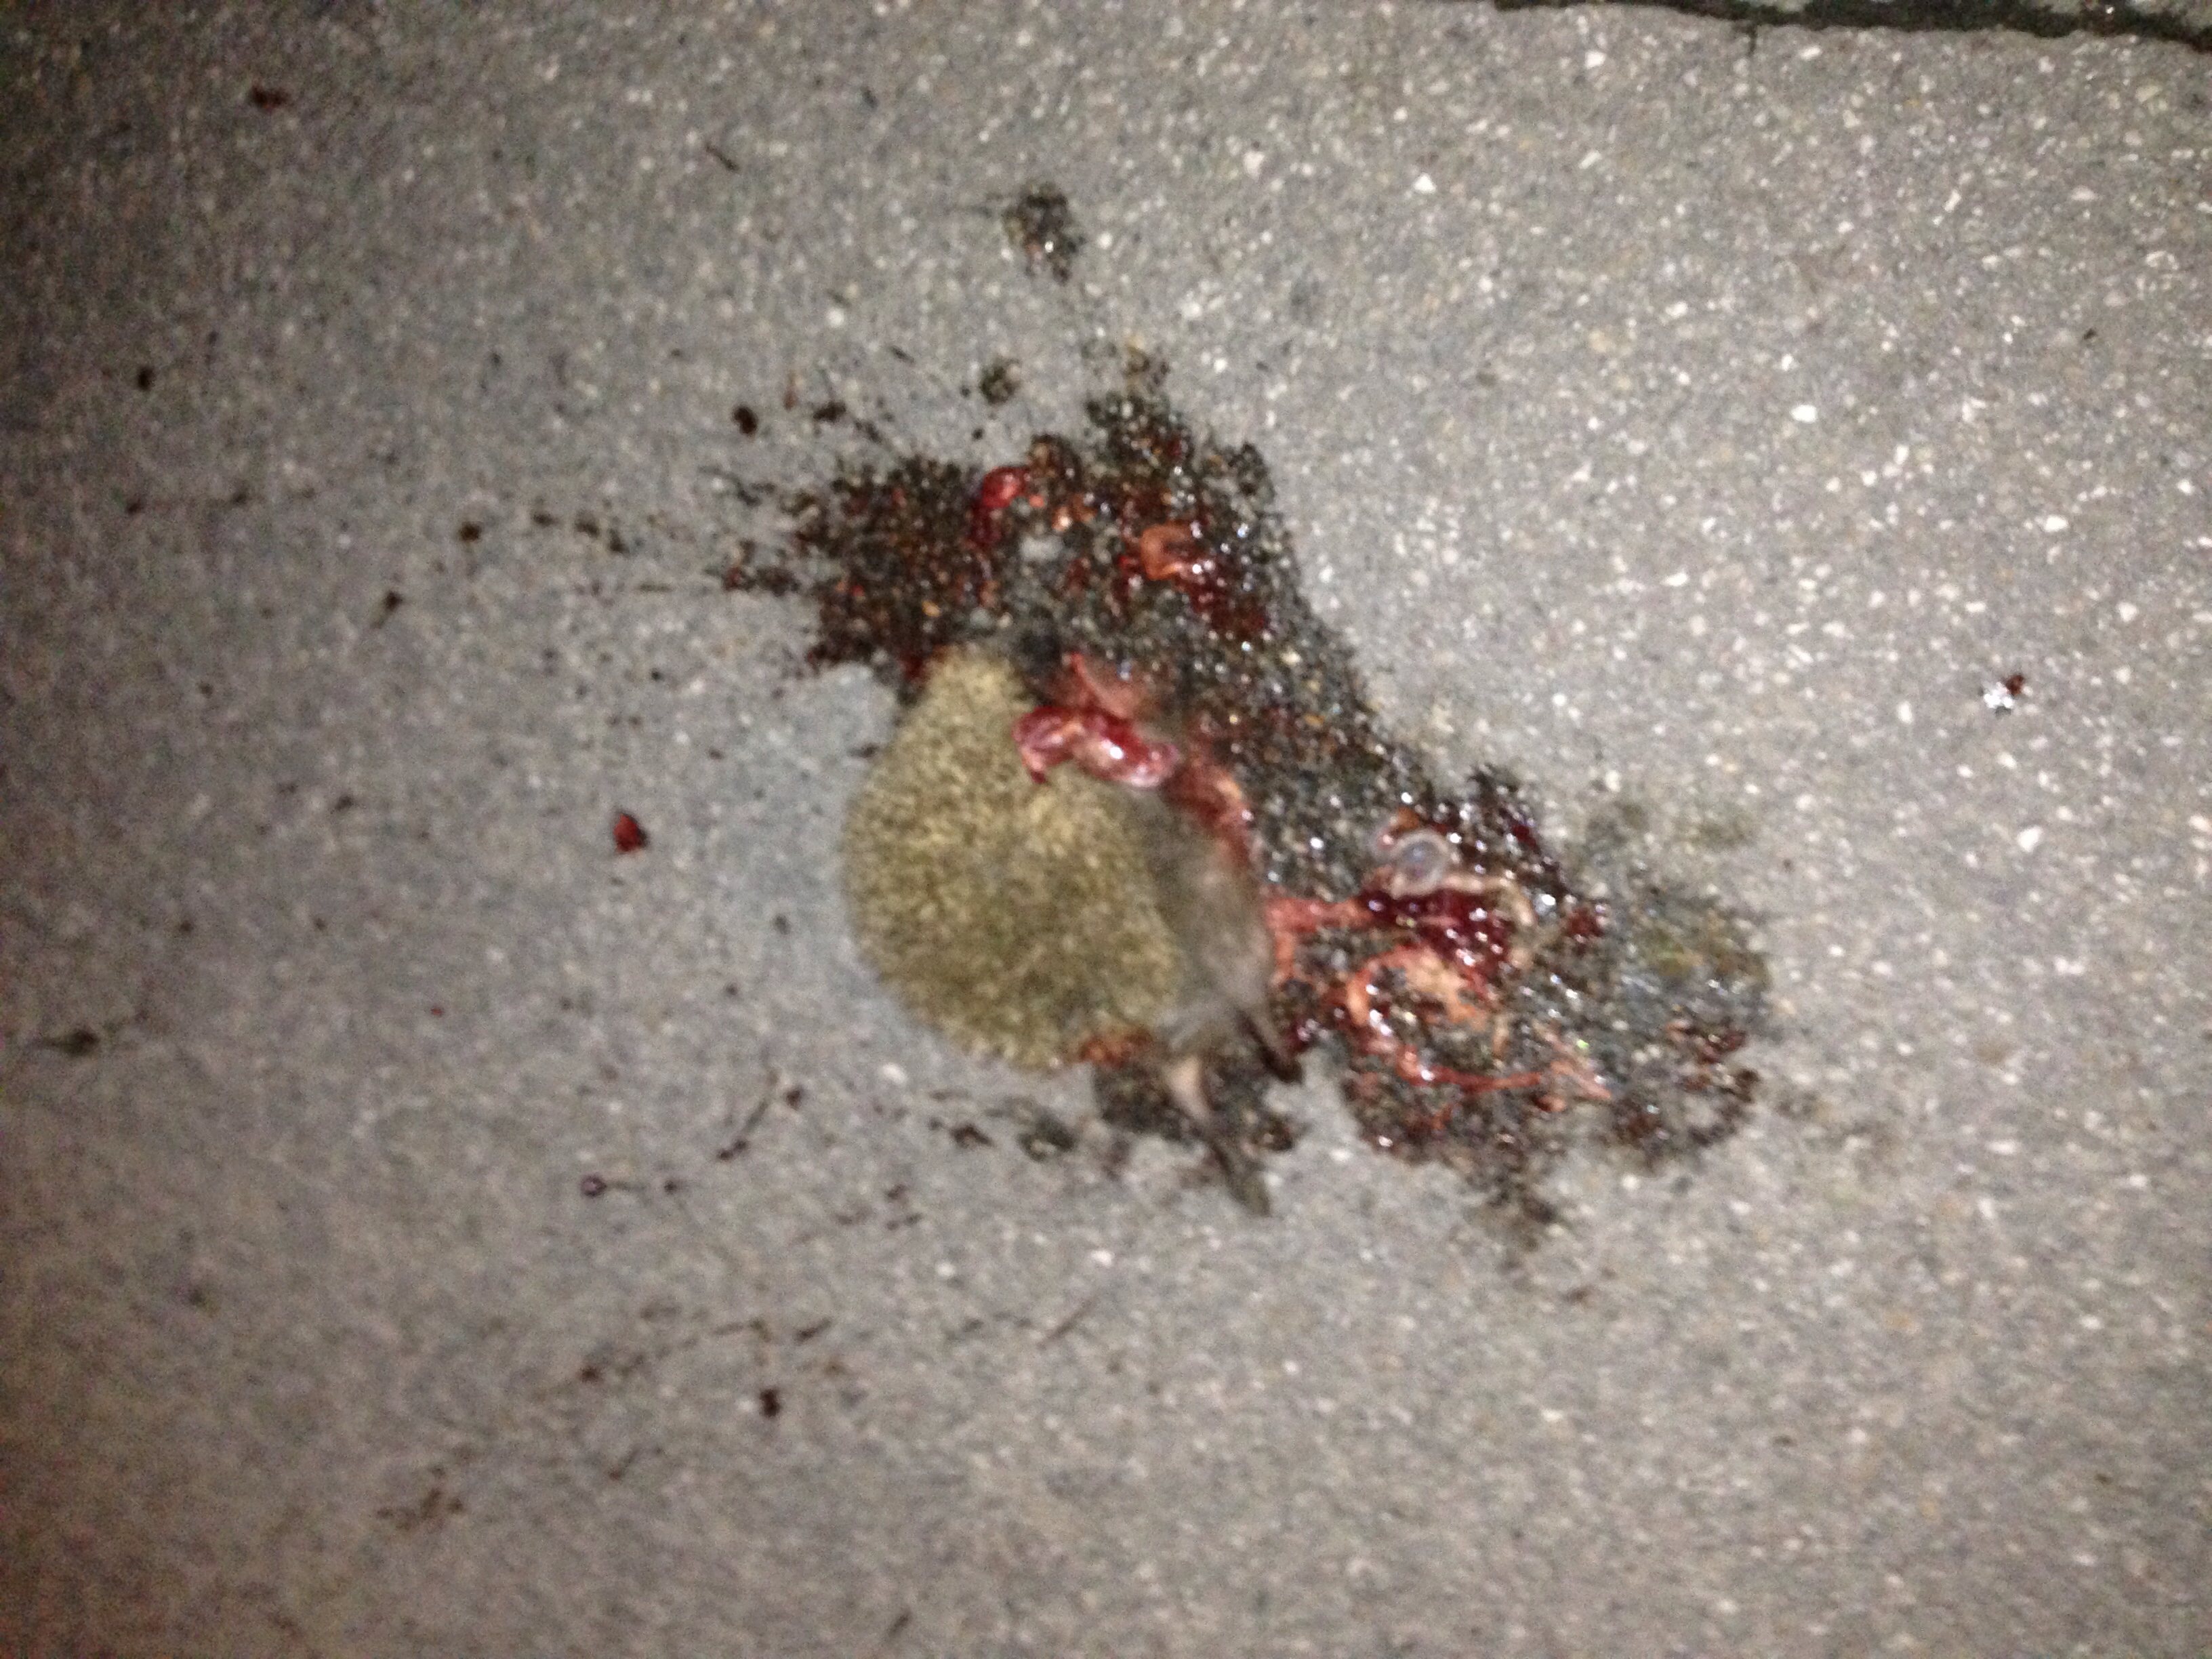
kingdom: Animalia
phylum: Chordata
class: Mammalia
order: Erinaceomorpha
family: Erinaceidae
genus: Erinaceus
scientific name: Erinaceus
